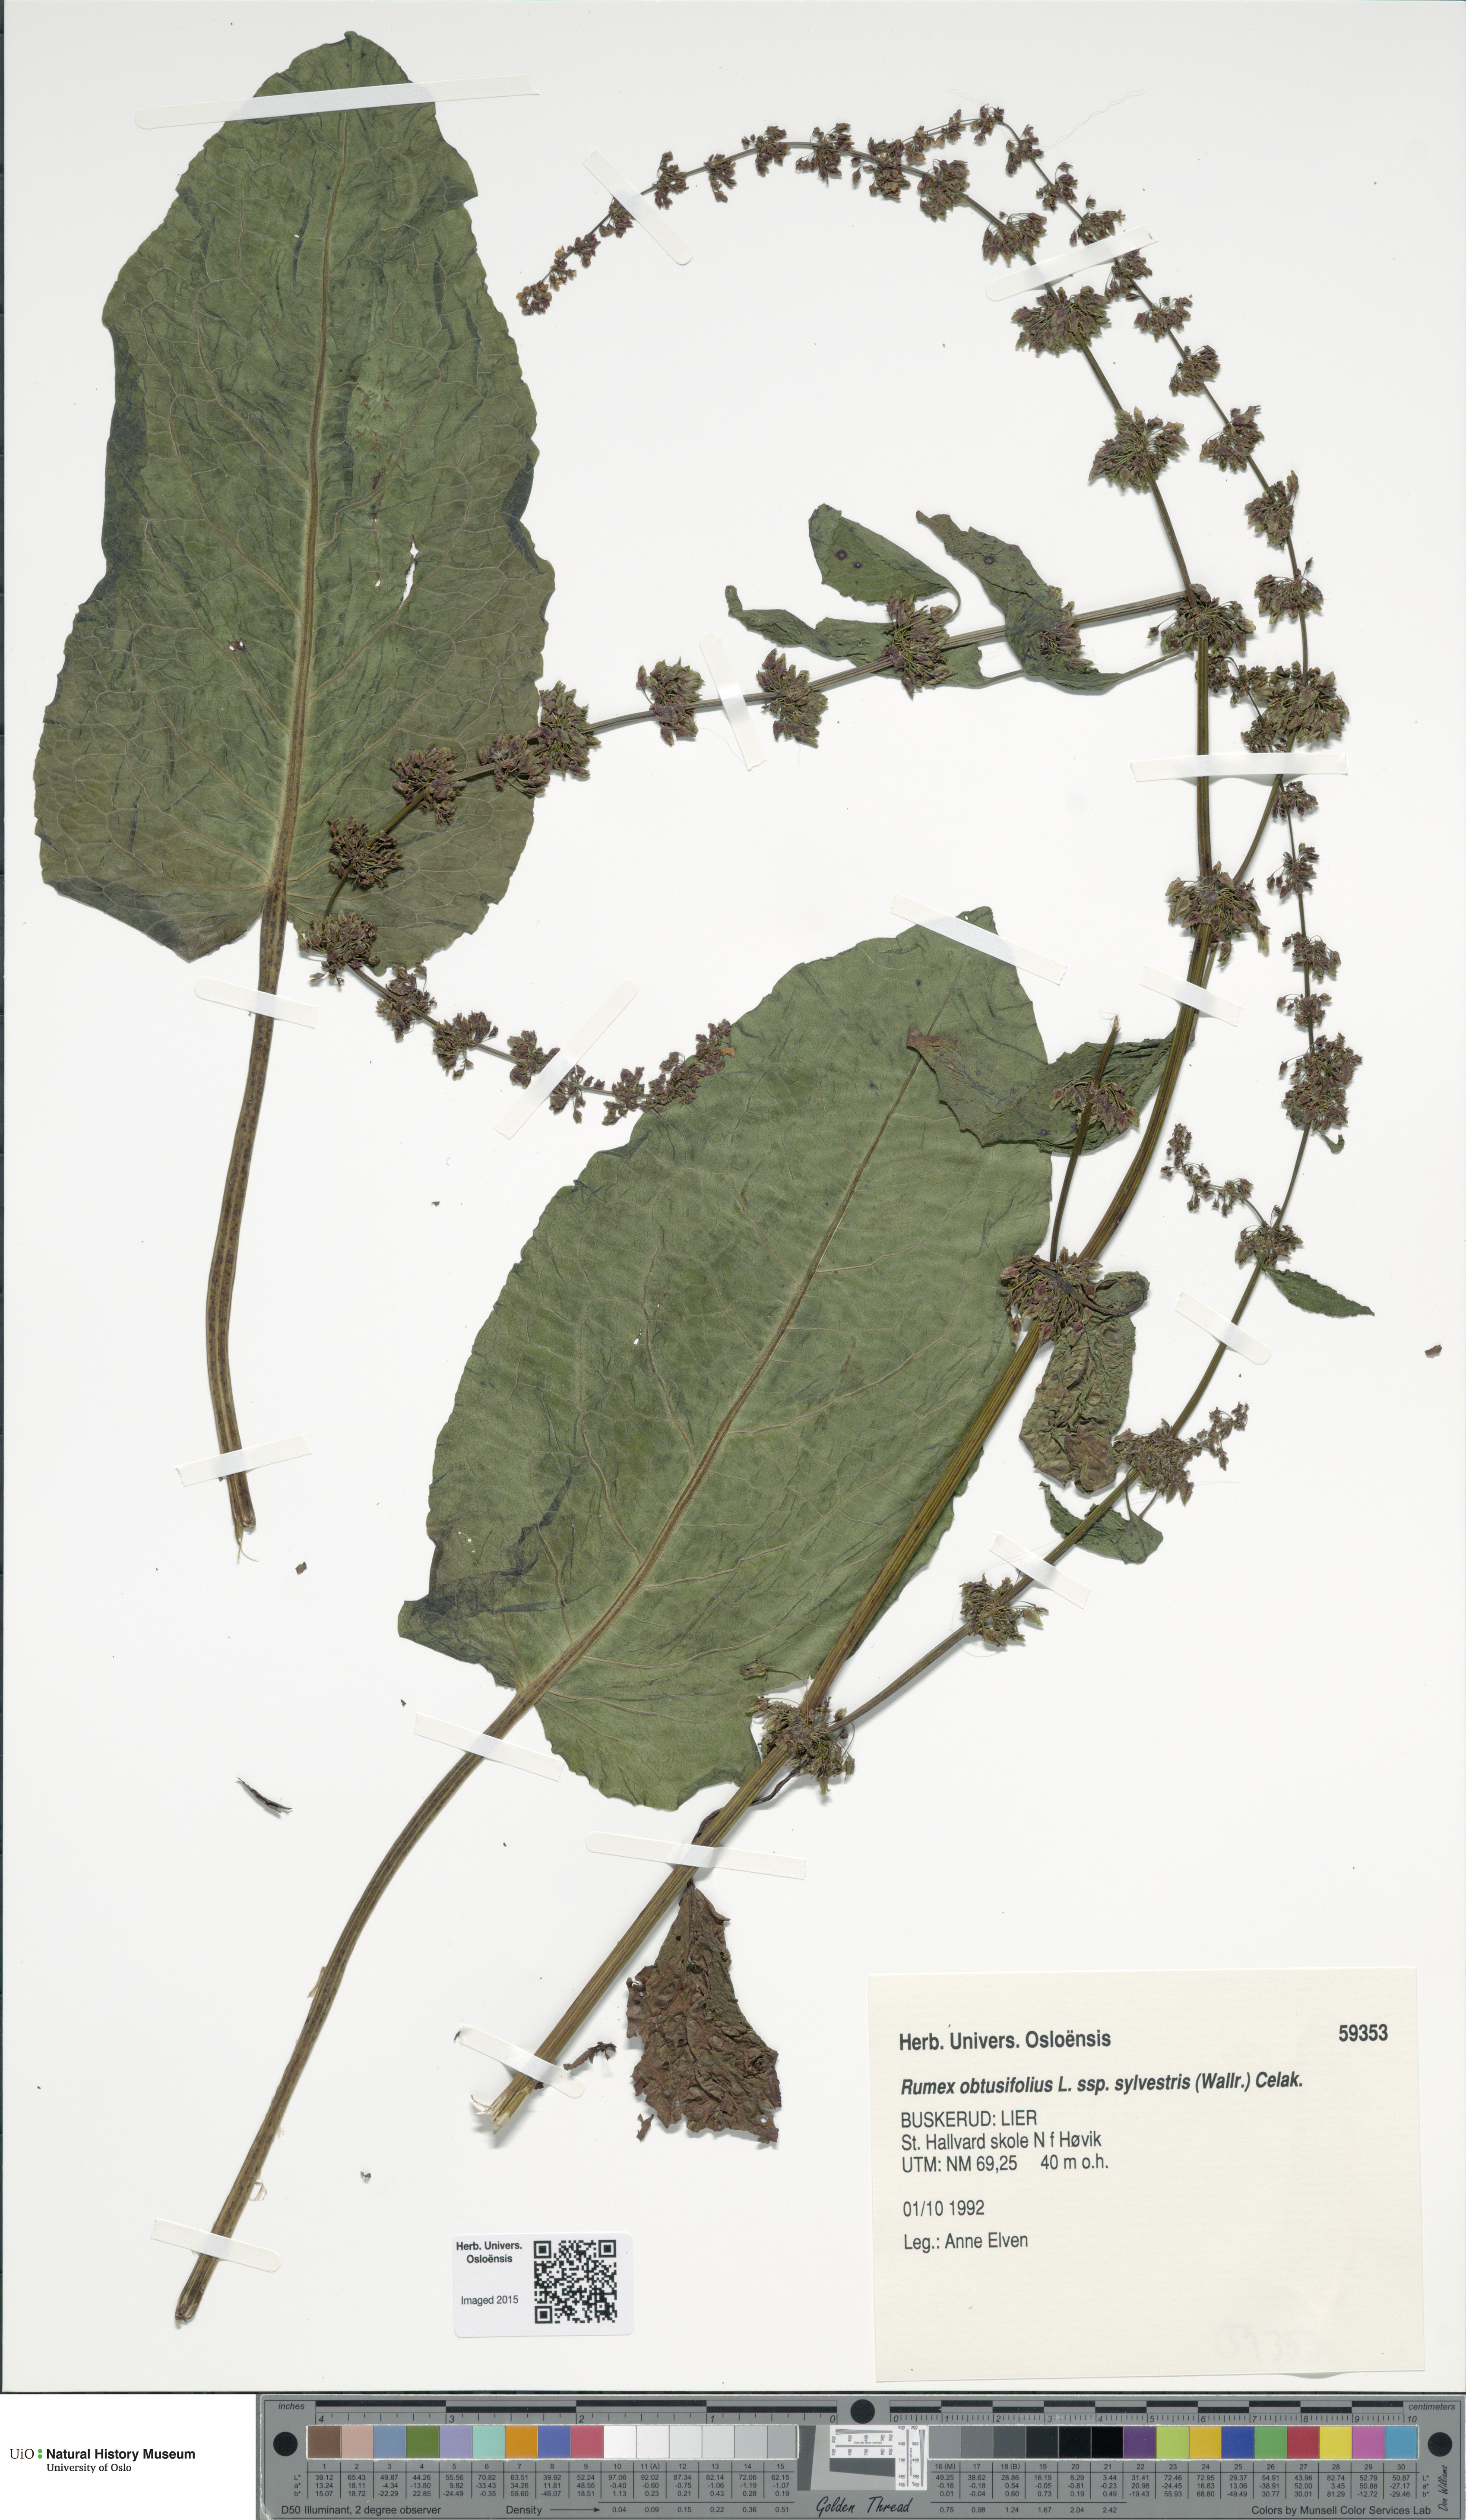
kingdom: Plantae
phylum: Tracheophyta
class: Magnoliopsida
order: Caryophyllales
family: Polygonaceae
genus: Rumex
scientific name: Rumex obtusifolius
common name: Bitter dock
